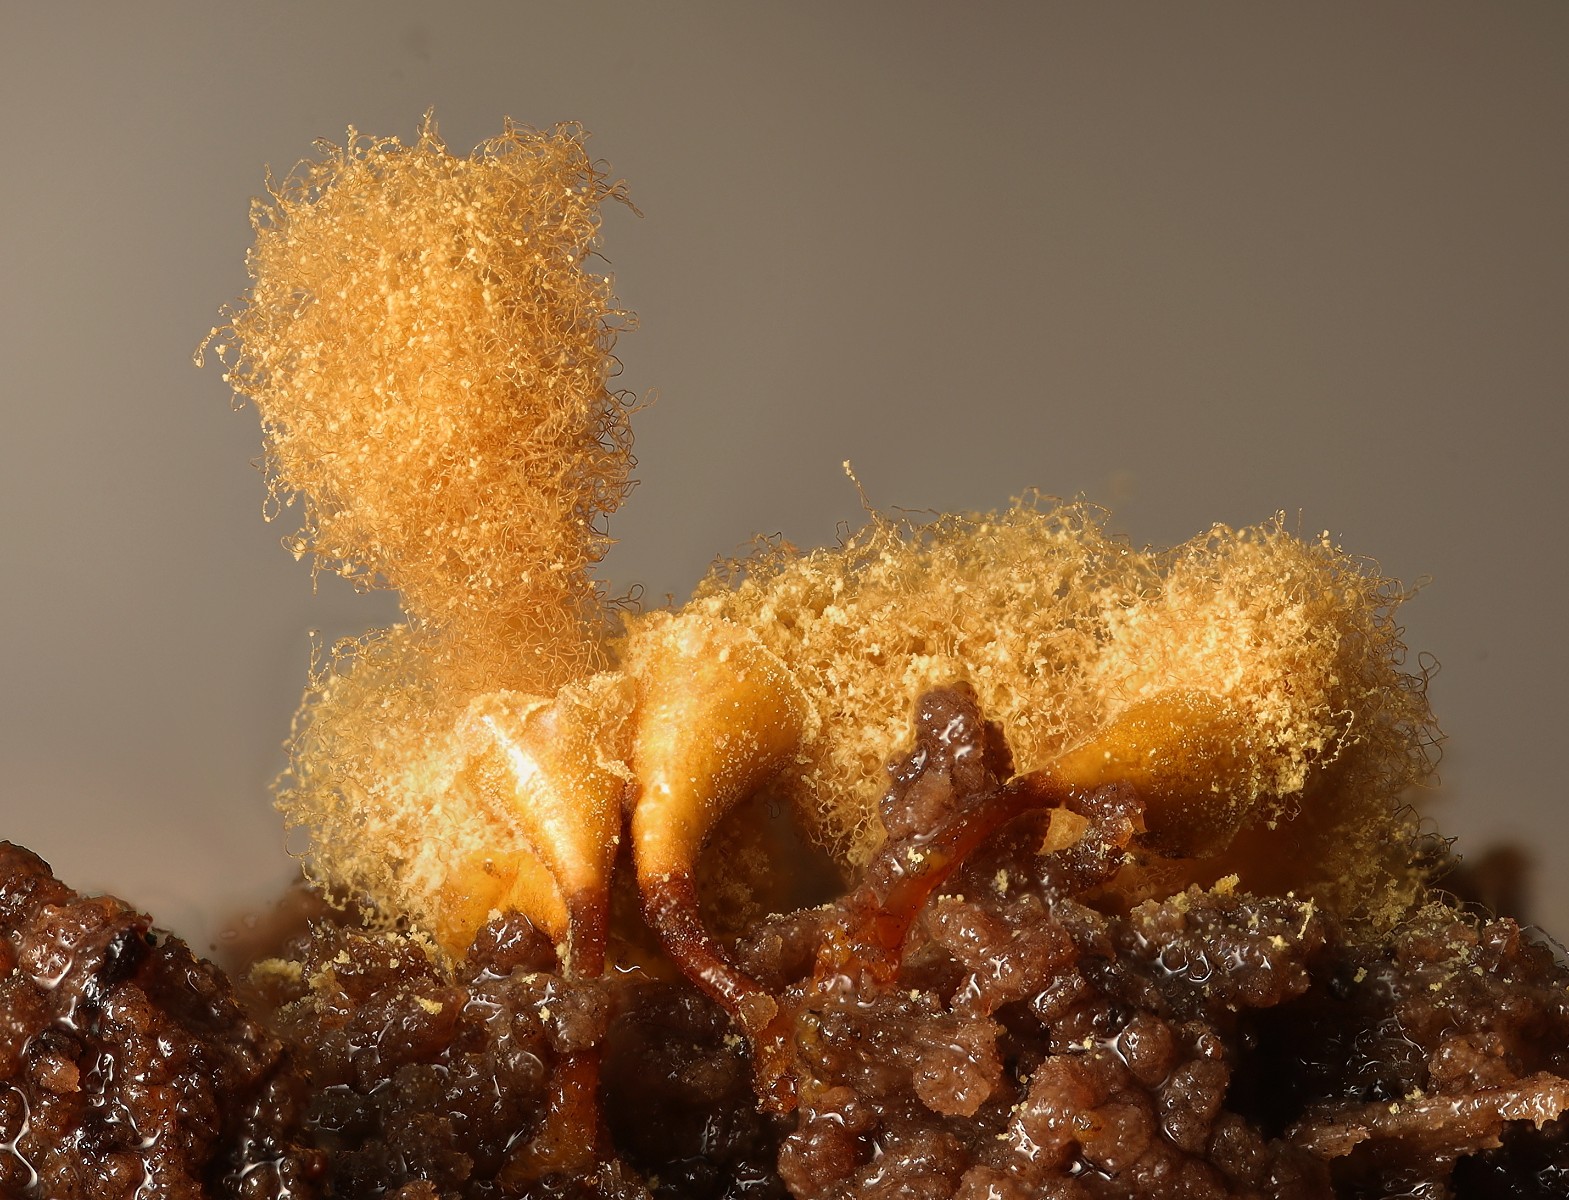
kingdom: Protozoa
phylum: Mycetozoa
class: Myxomycetes
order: Trichiales
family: Arcyriaceae
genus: Hemitrichia
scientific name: Hemitrichia clavata
